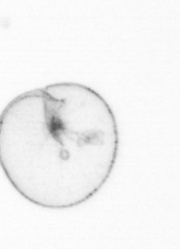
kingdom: Chromista
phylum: Myzozoa
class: Dinophyceae
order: Noctilucales
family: Noctilucaceae
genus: Noctiluca
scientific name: Noctiluca scintillans
